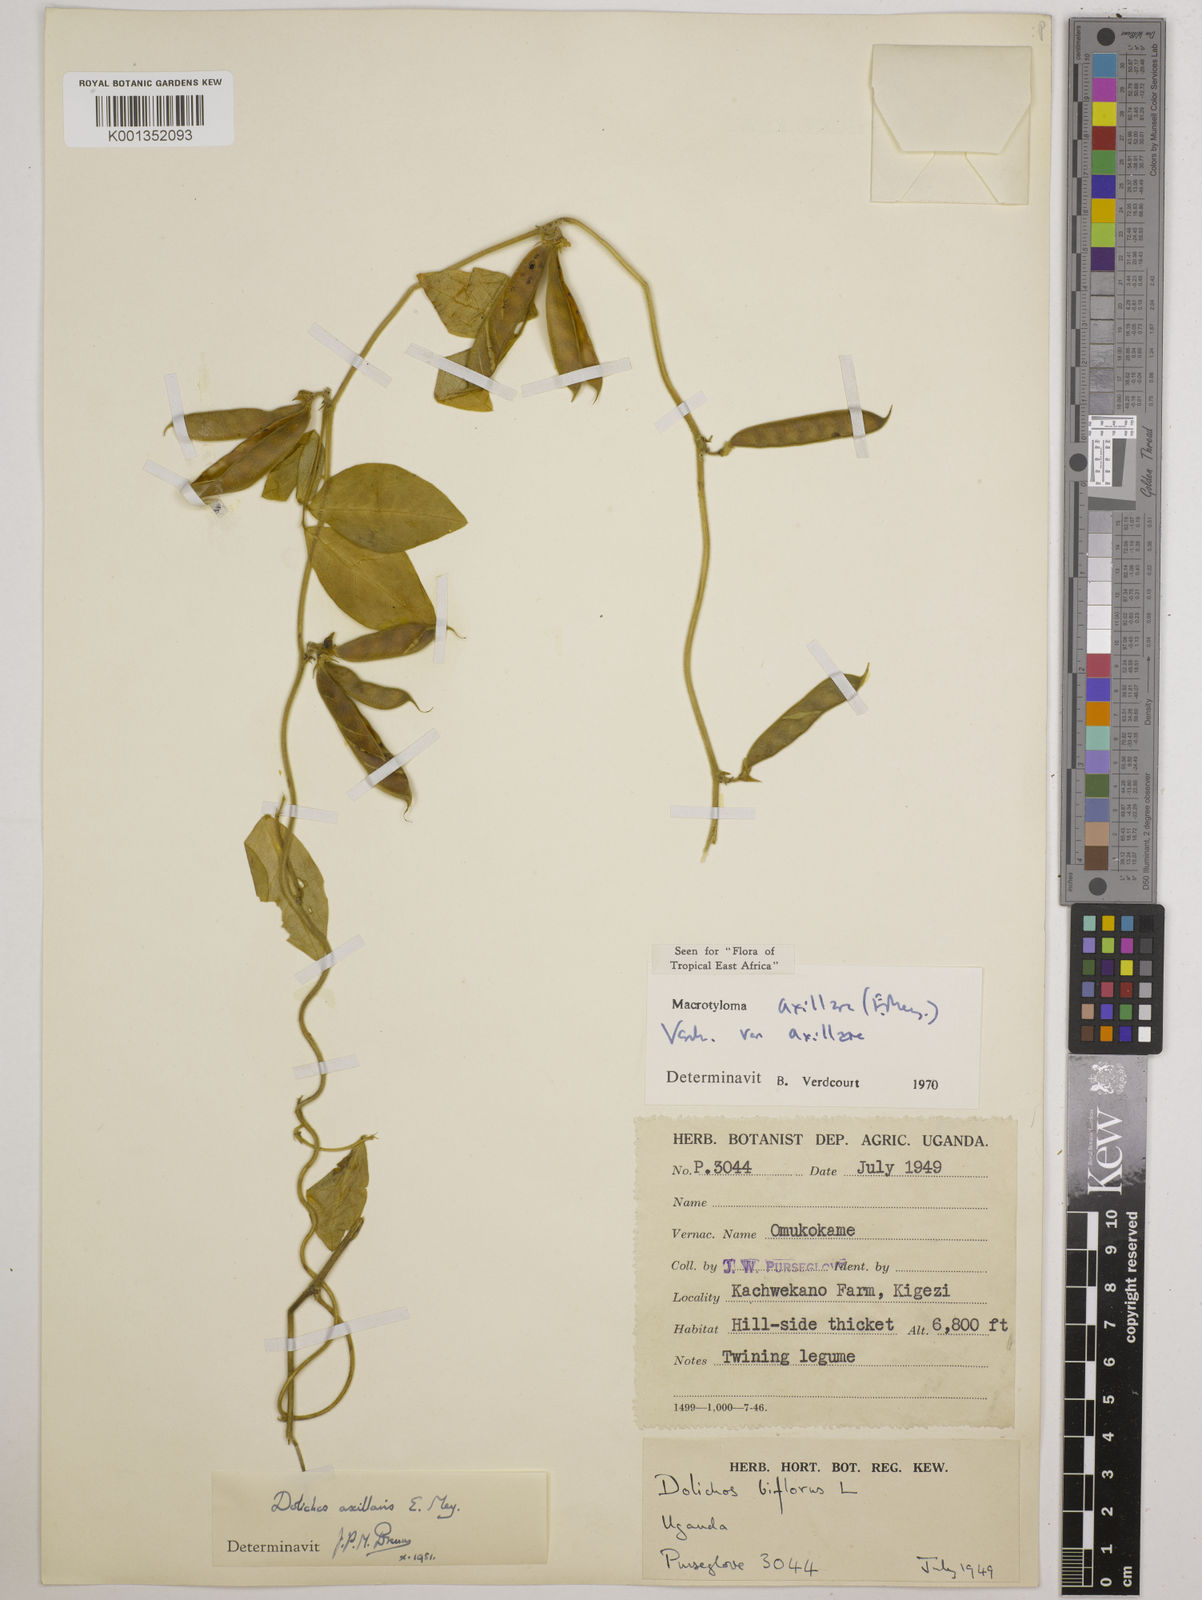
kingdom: Plantae
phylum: Tracheophyta
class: Magnoliopsida
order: Fabales
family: Fabaceae
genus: Macrotyloma
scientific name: Macrotyloma axillare
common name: Perennial horsegram
